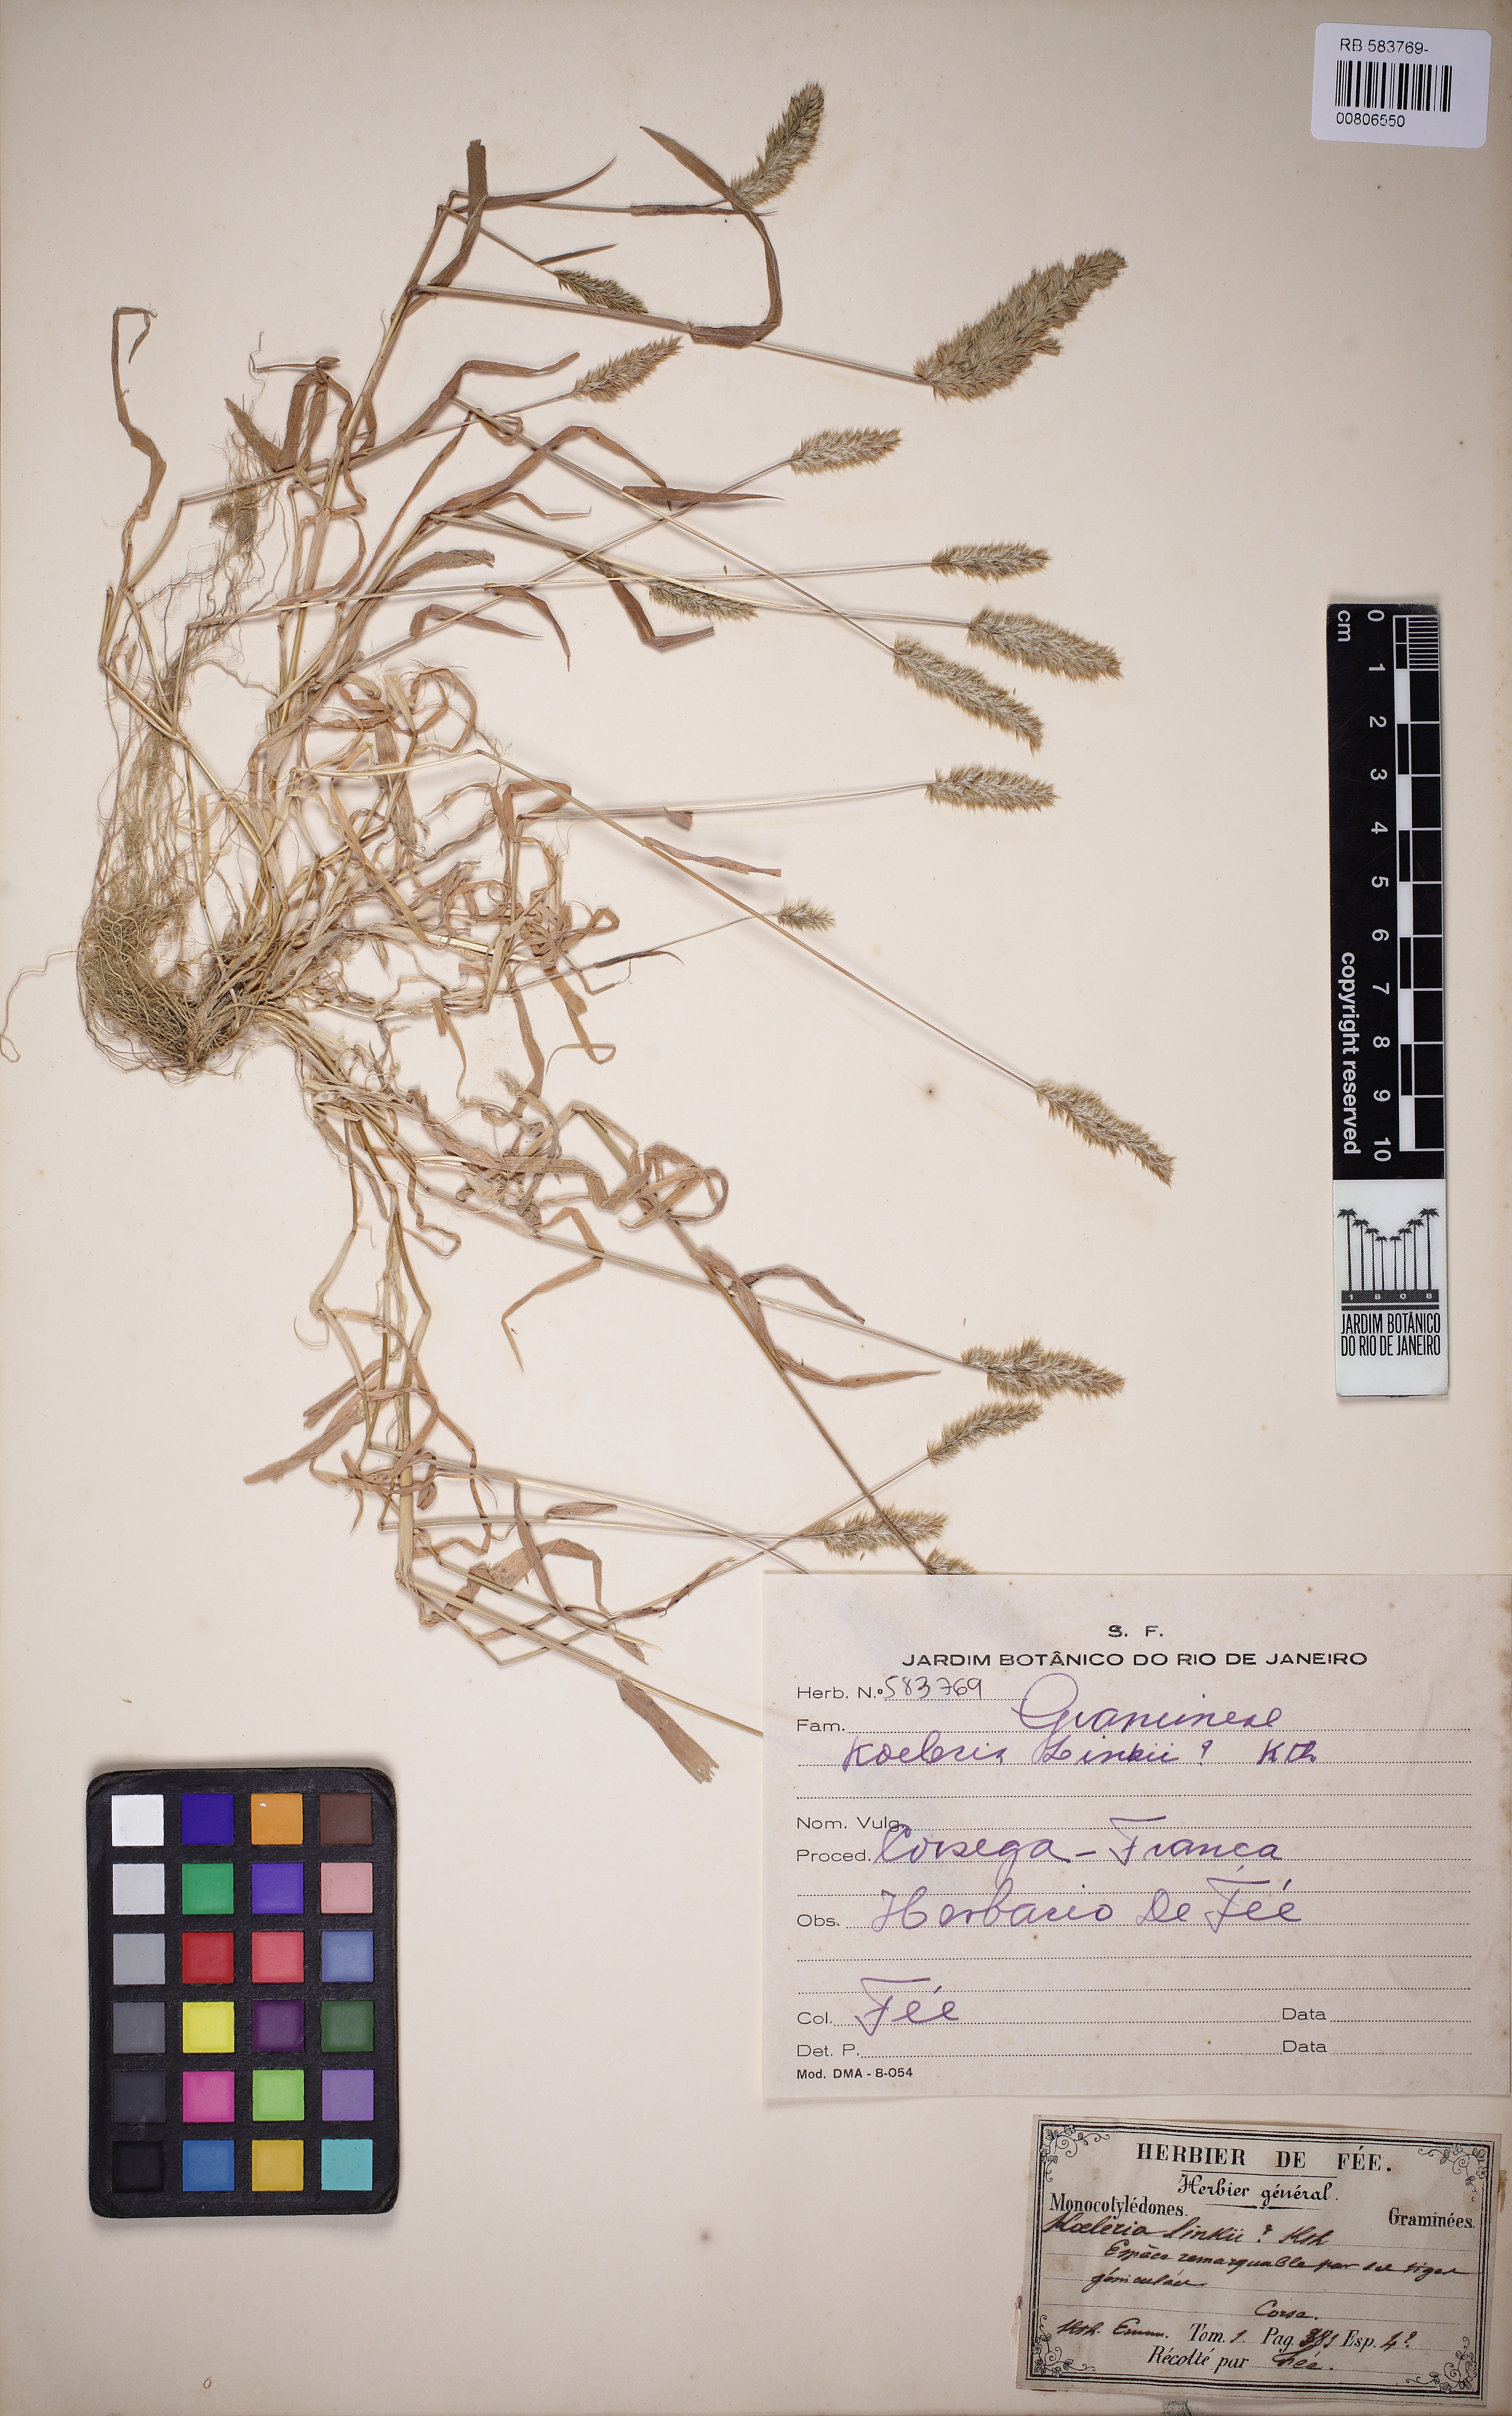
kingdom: Plantae
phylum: Tracheophyta
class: Liliopsida
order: Poales
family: Poaceae
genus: Koeleria
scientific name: Koeleria vallesiana
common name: Somerset hair-grass
